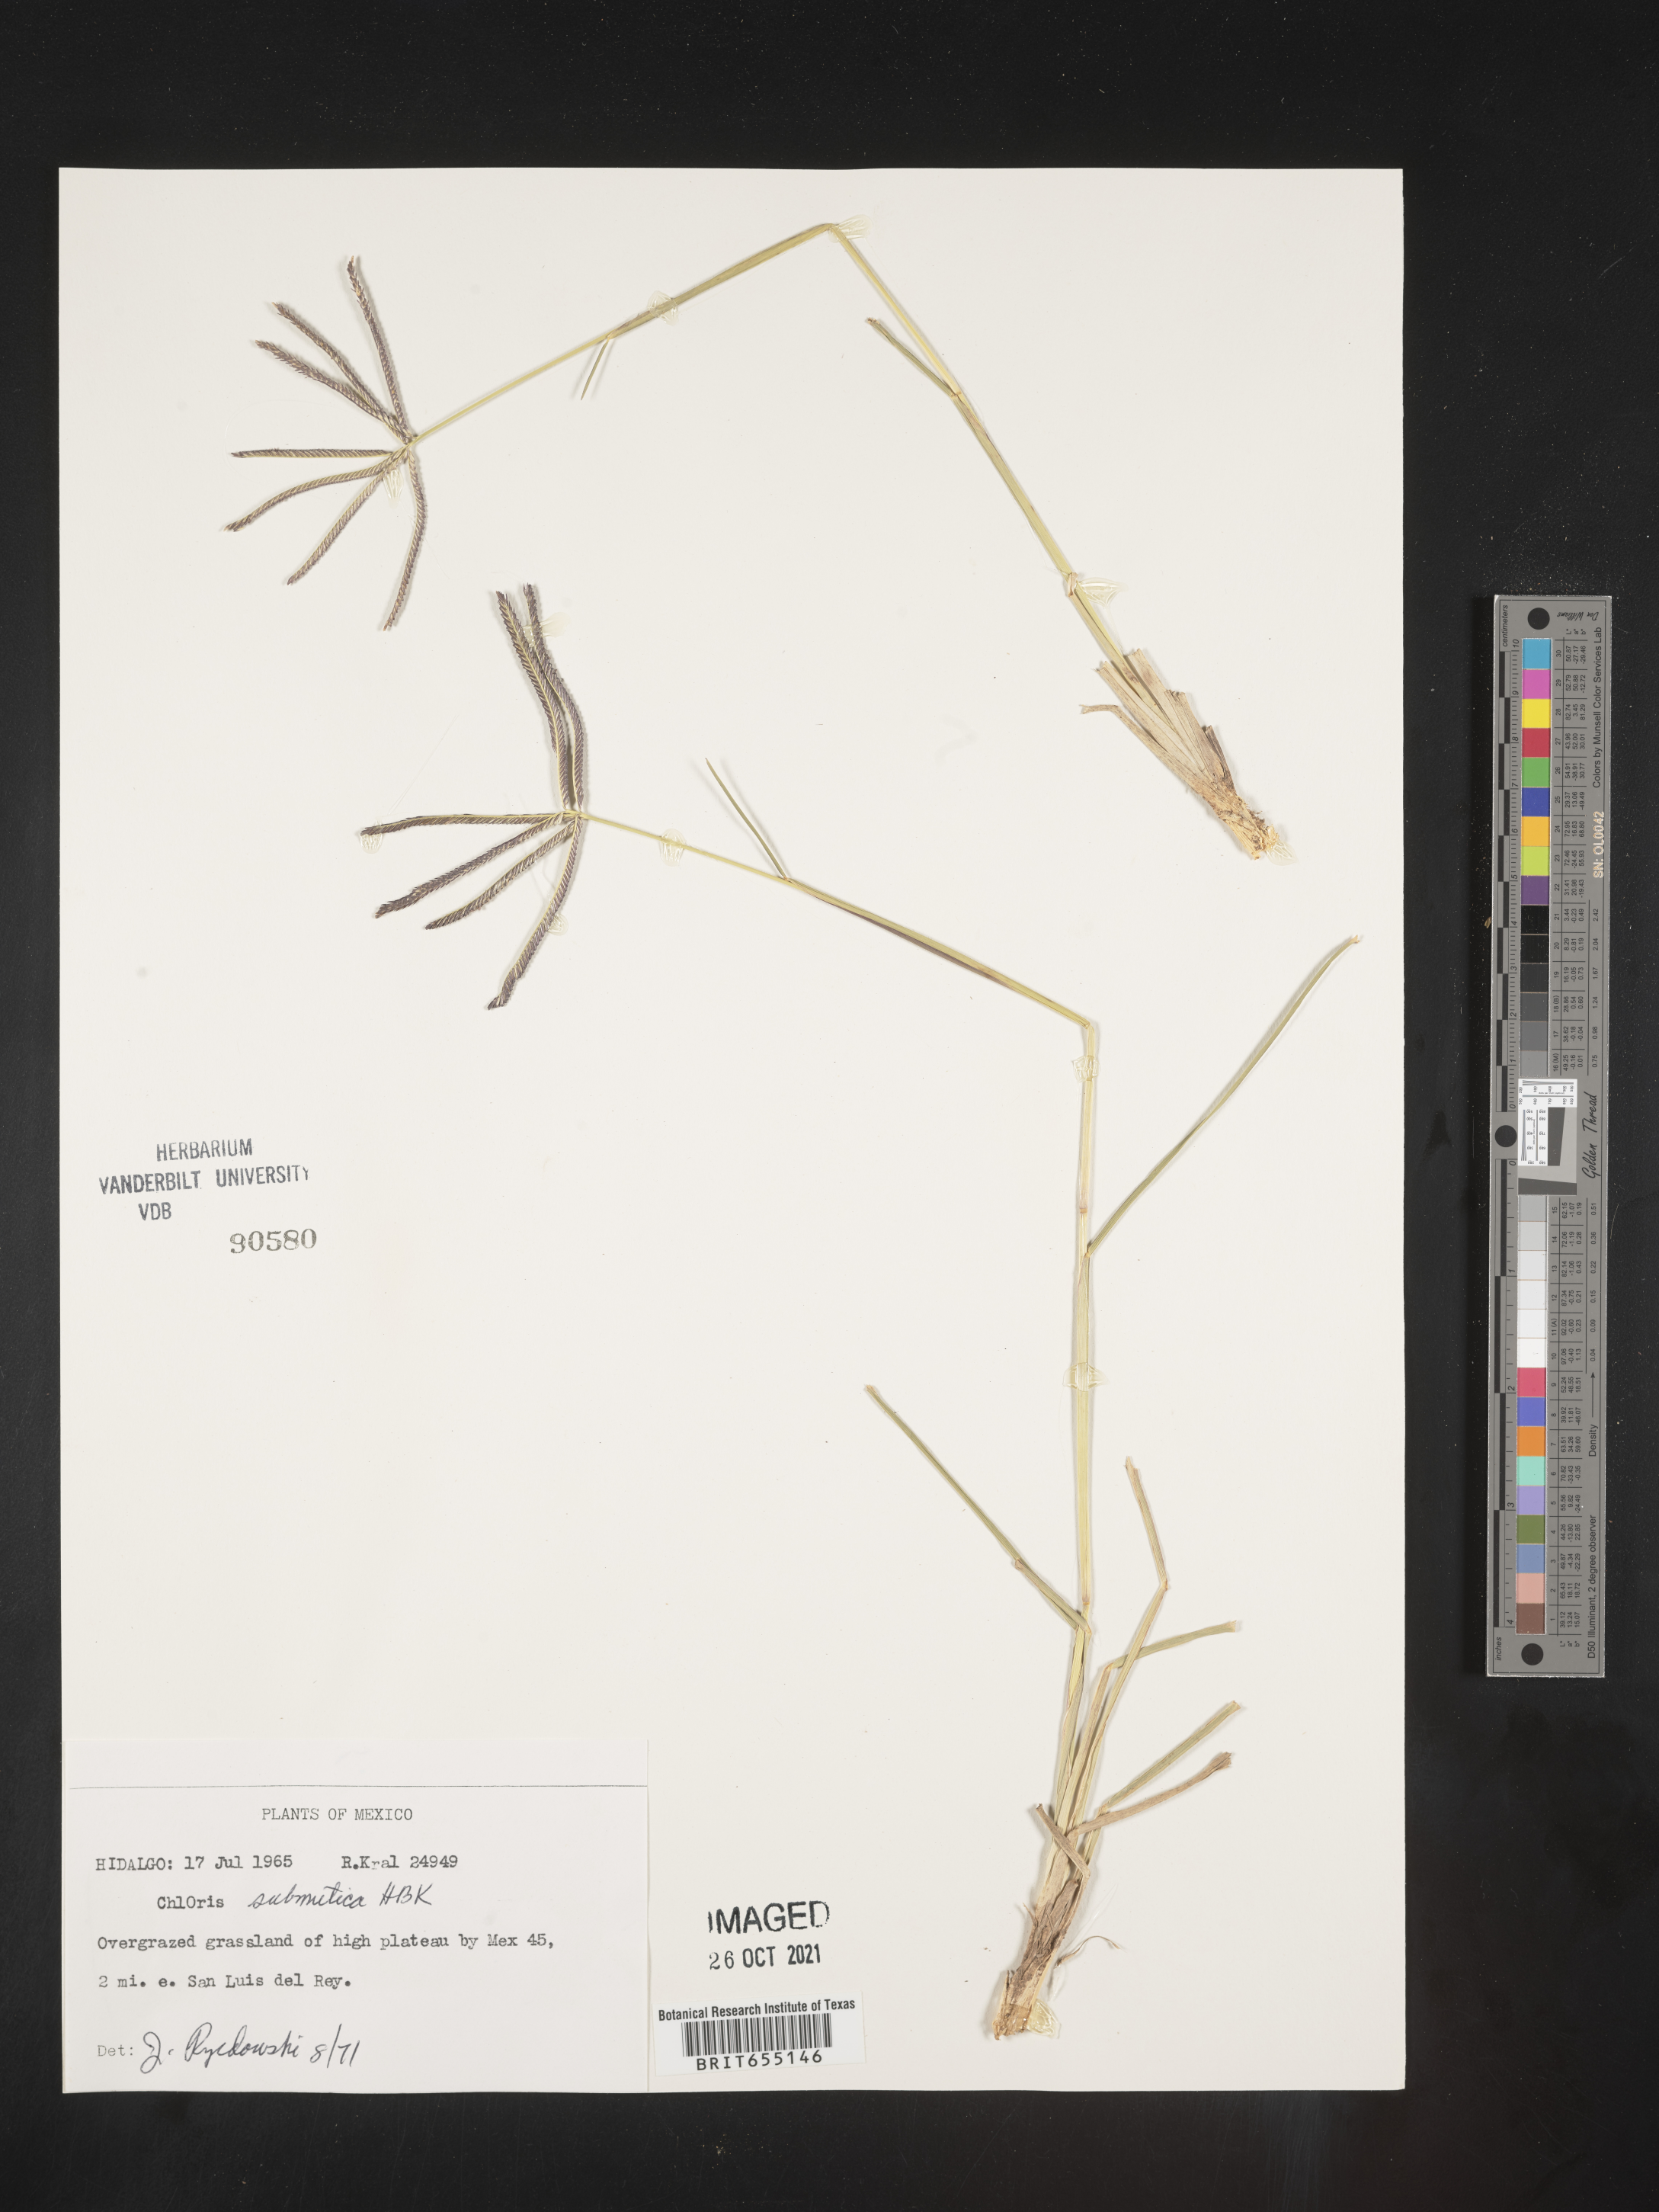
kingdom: Plantae
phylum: Tracheophyta
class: Liliopsida
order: Poales
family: Poaceae
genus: Chloris
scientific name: Chloris
